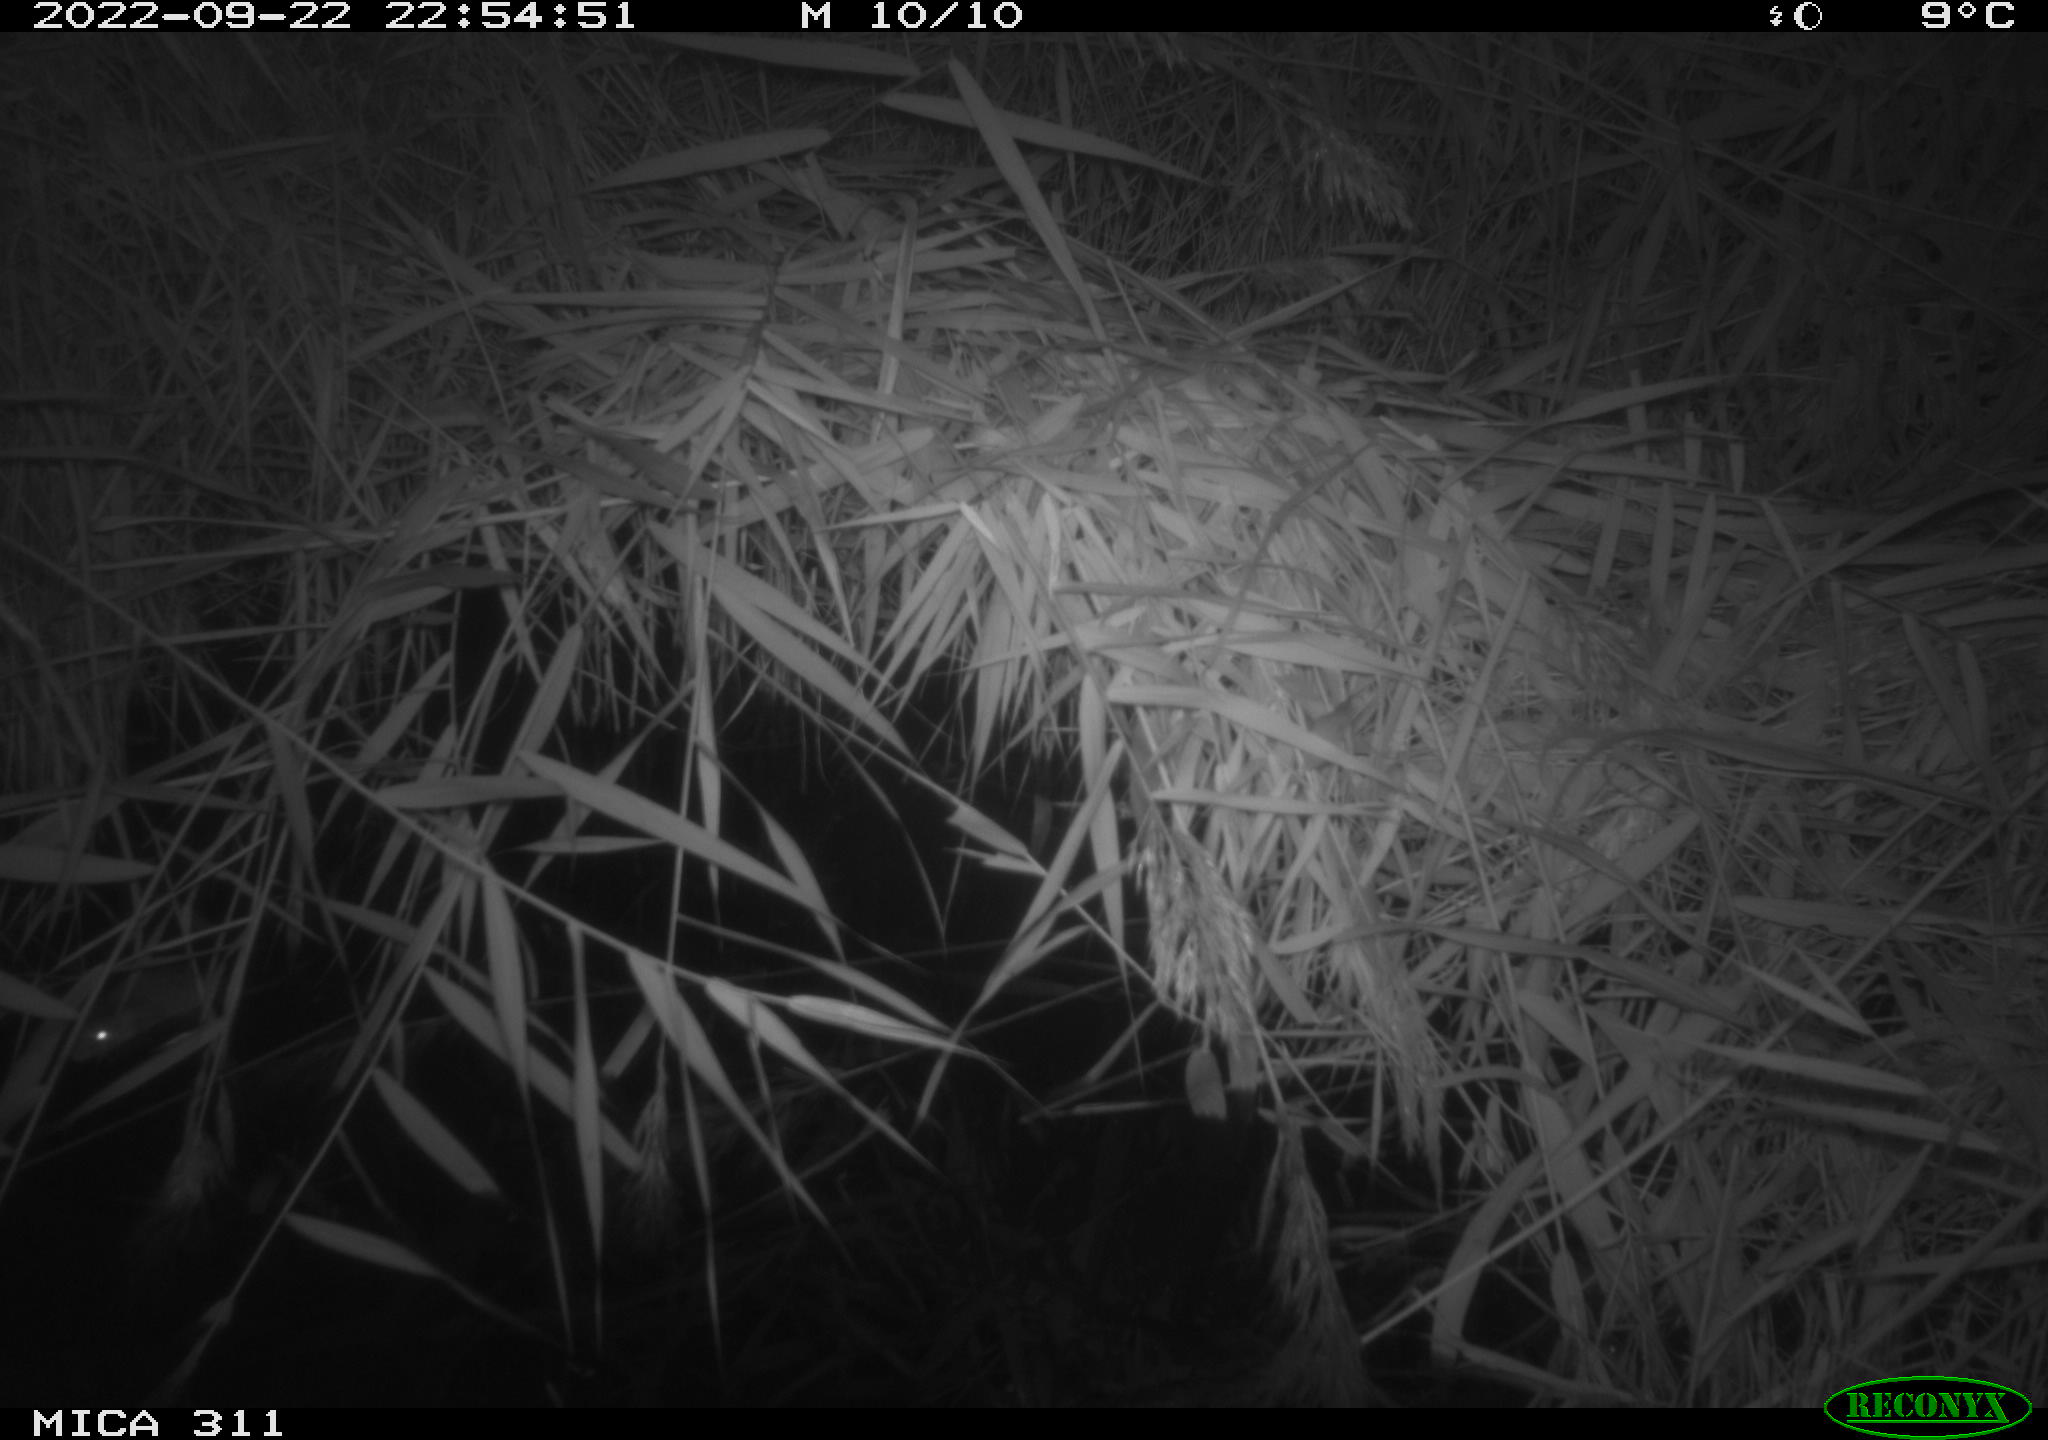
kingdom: Animalia
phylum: Chordata
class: Mammalia
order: Rodentia
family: Muridae
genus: Rattus
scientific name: Rattus norvegicus
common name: Brown rat
